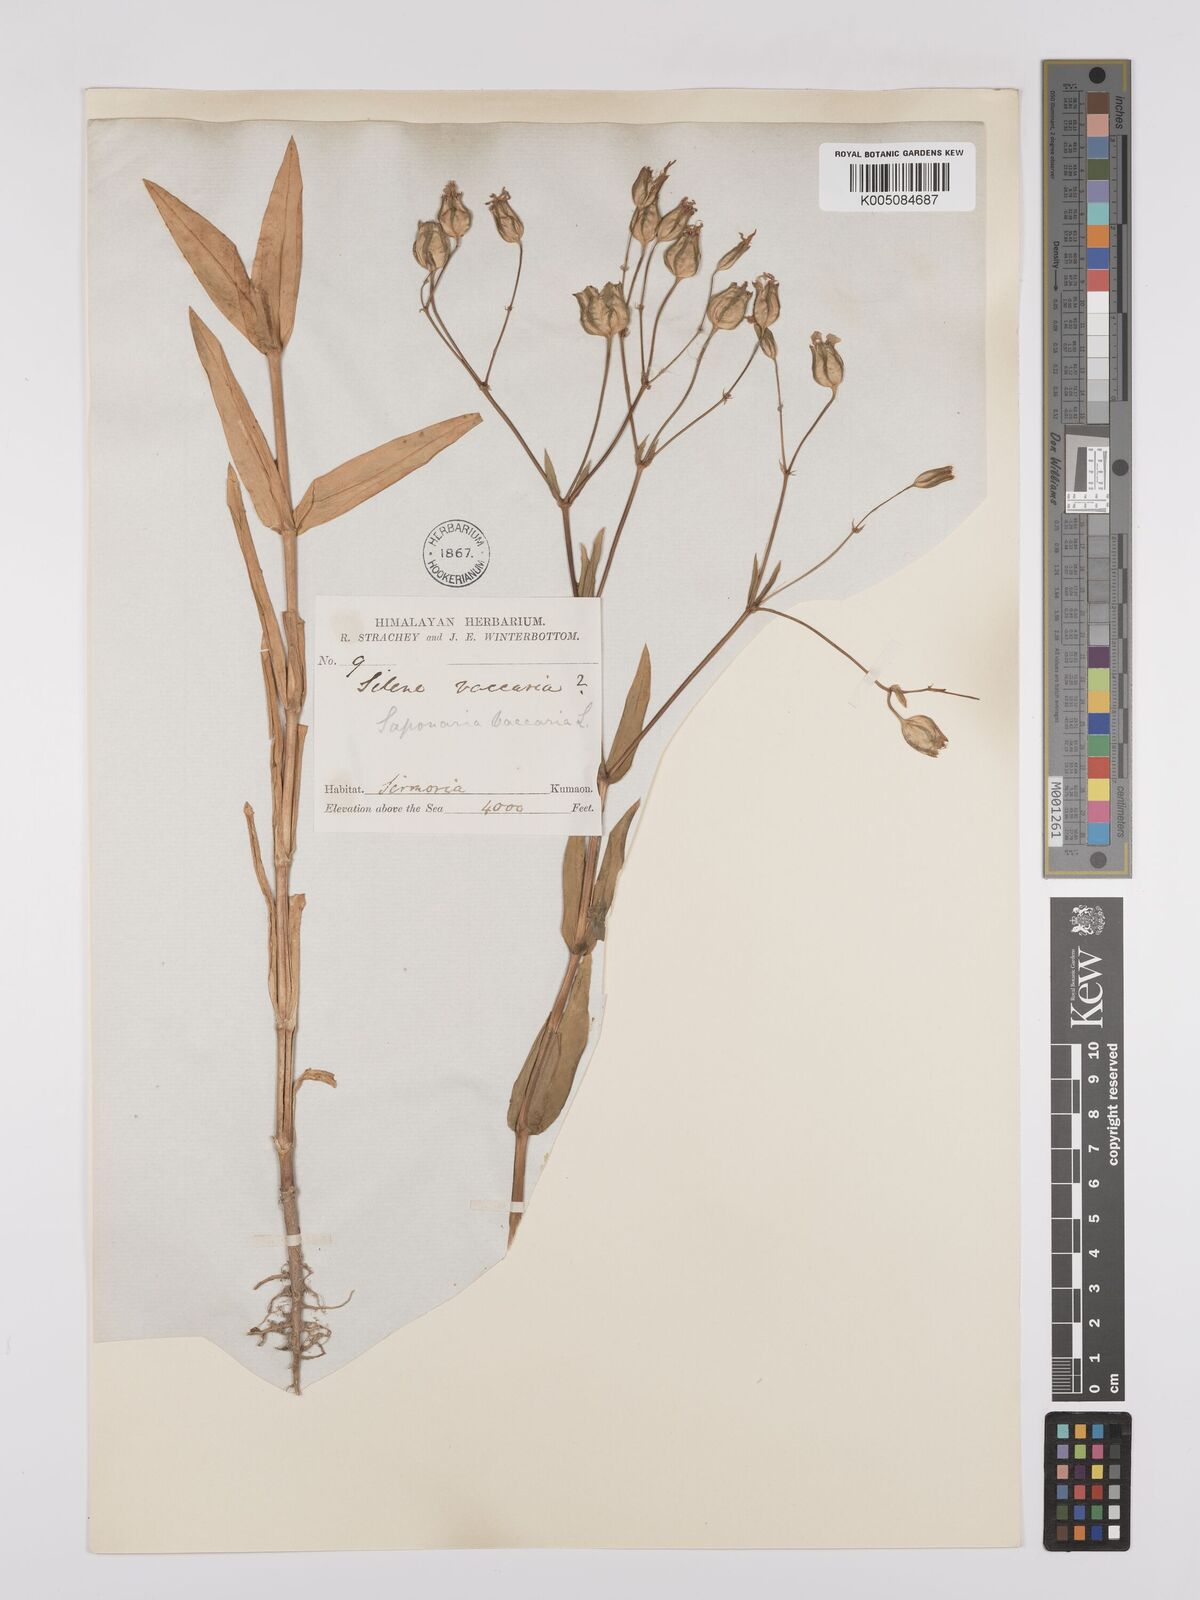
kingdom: Plantae
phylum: Tracheophyta
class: Magnoliopsida
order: Caryophyllales
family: Caryophyllaceae
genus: Gypsophila
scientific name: Gypsophila vaccaria
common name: Cow soapwort
